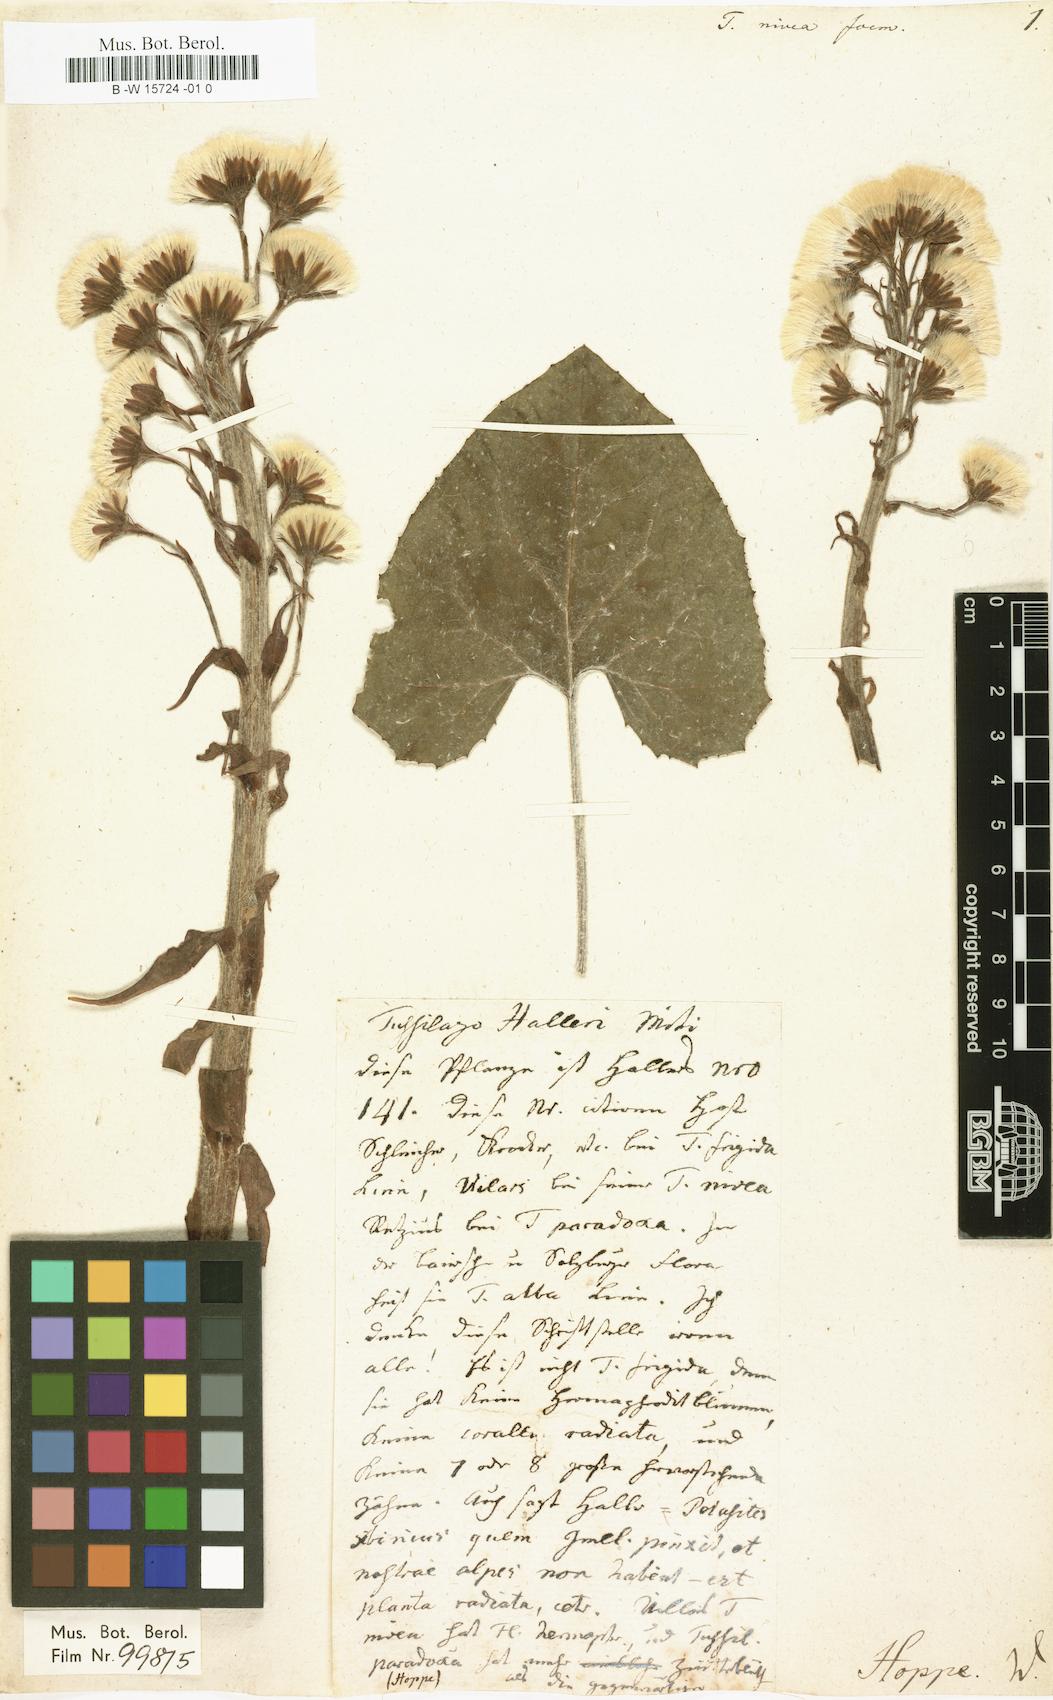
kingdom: Plantae
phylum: Tracheophyta
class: Magnoliopsida
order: Asterales
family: Asteraceae
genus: Petasites
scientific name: Petasites paradoxus
